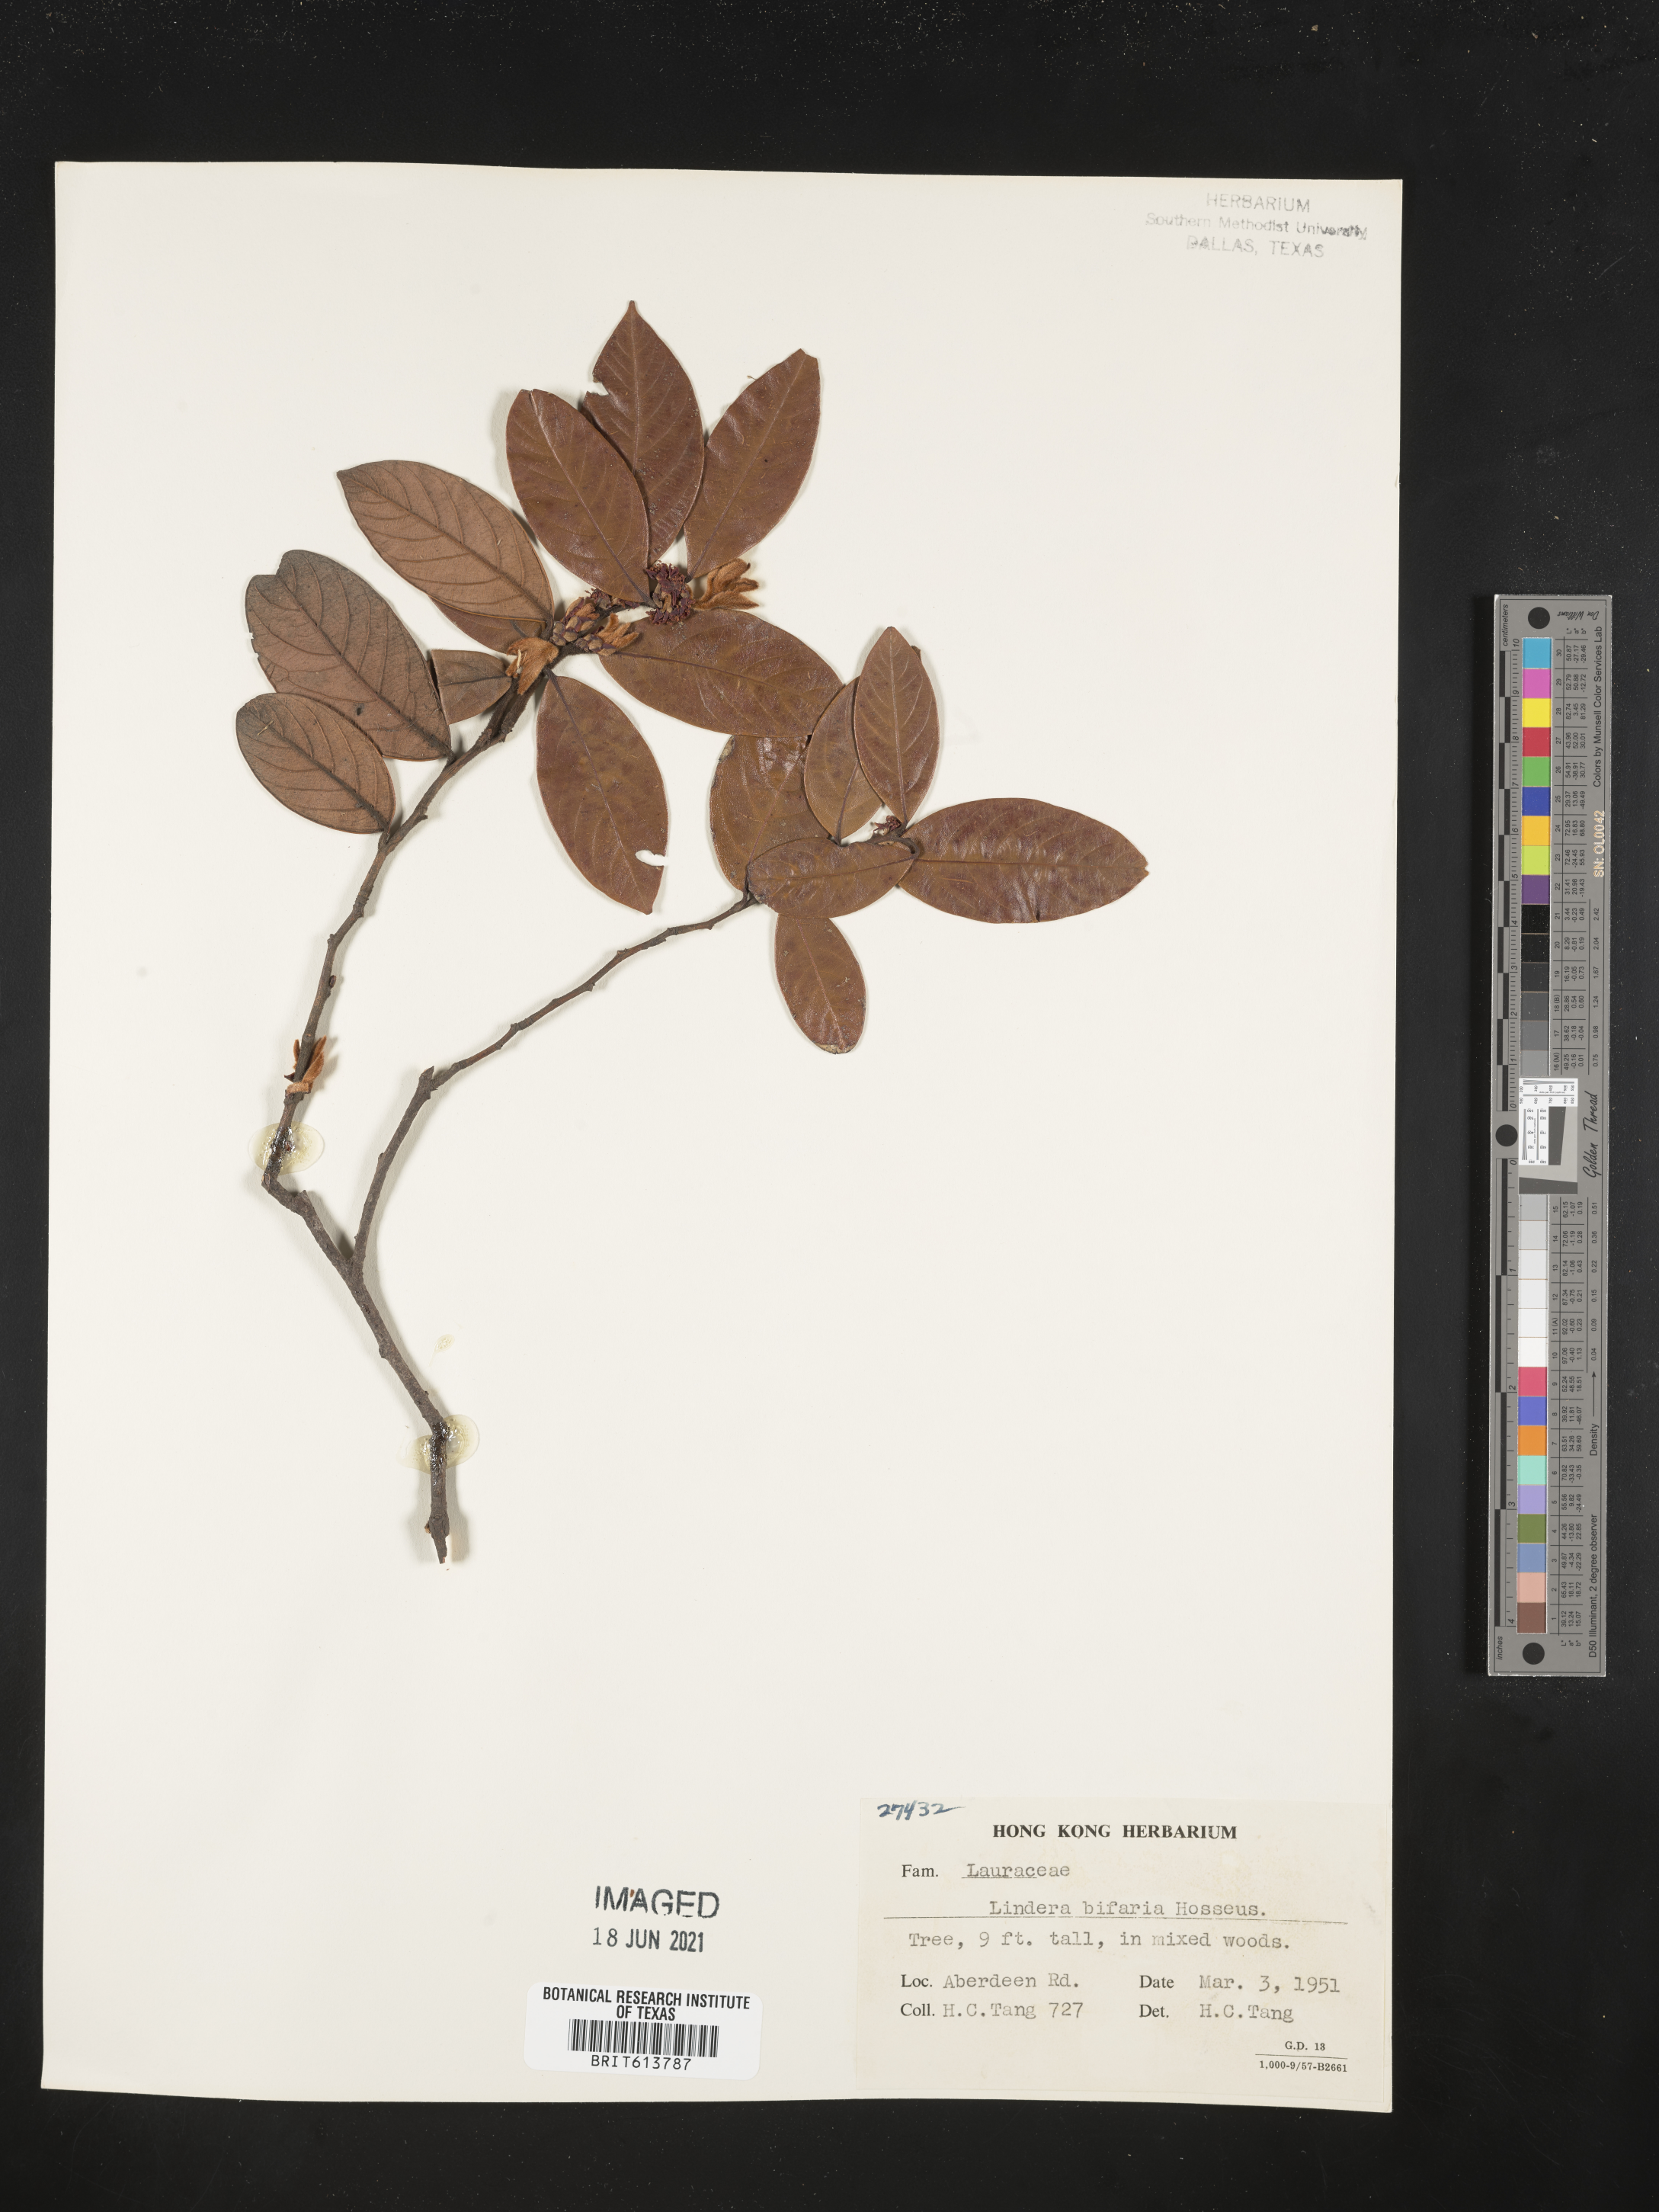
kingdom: Plantae
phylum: Tracheophyta
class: Magnoliopsida
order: Laurales
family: Lauraceae
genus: Lindera
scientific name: Lindera nacusua
